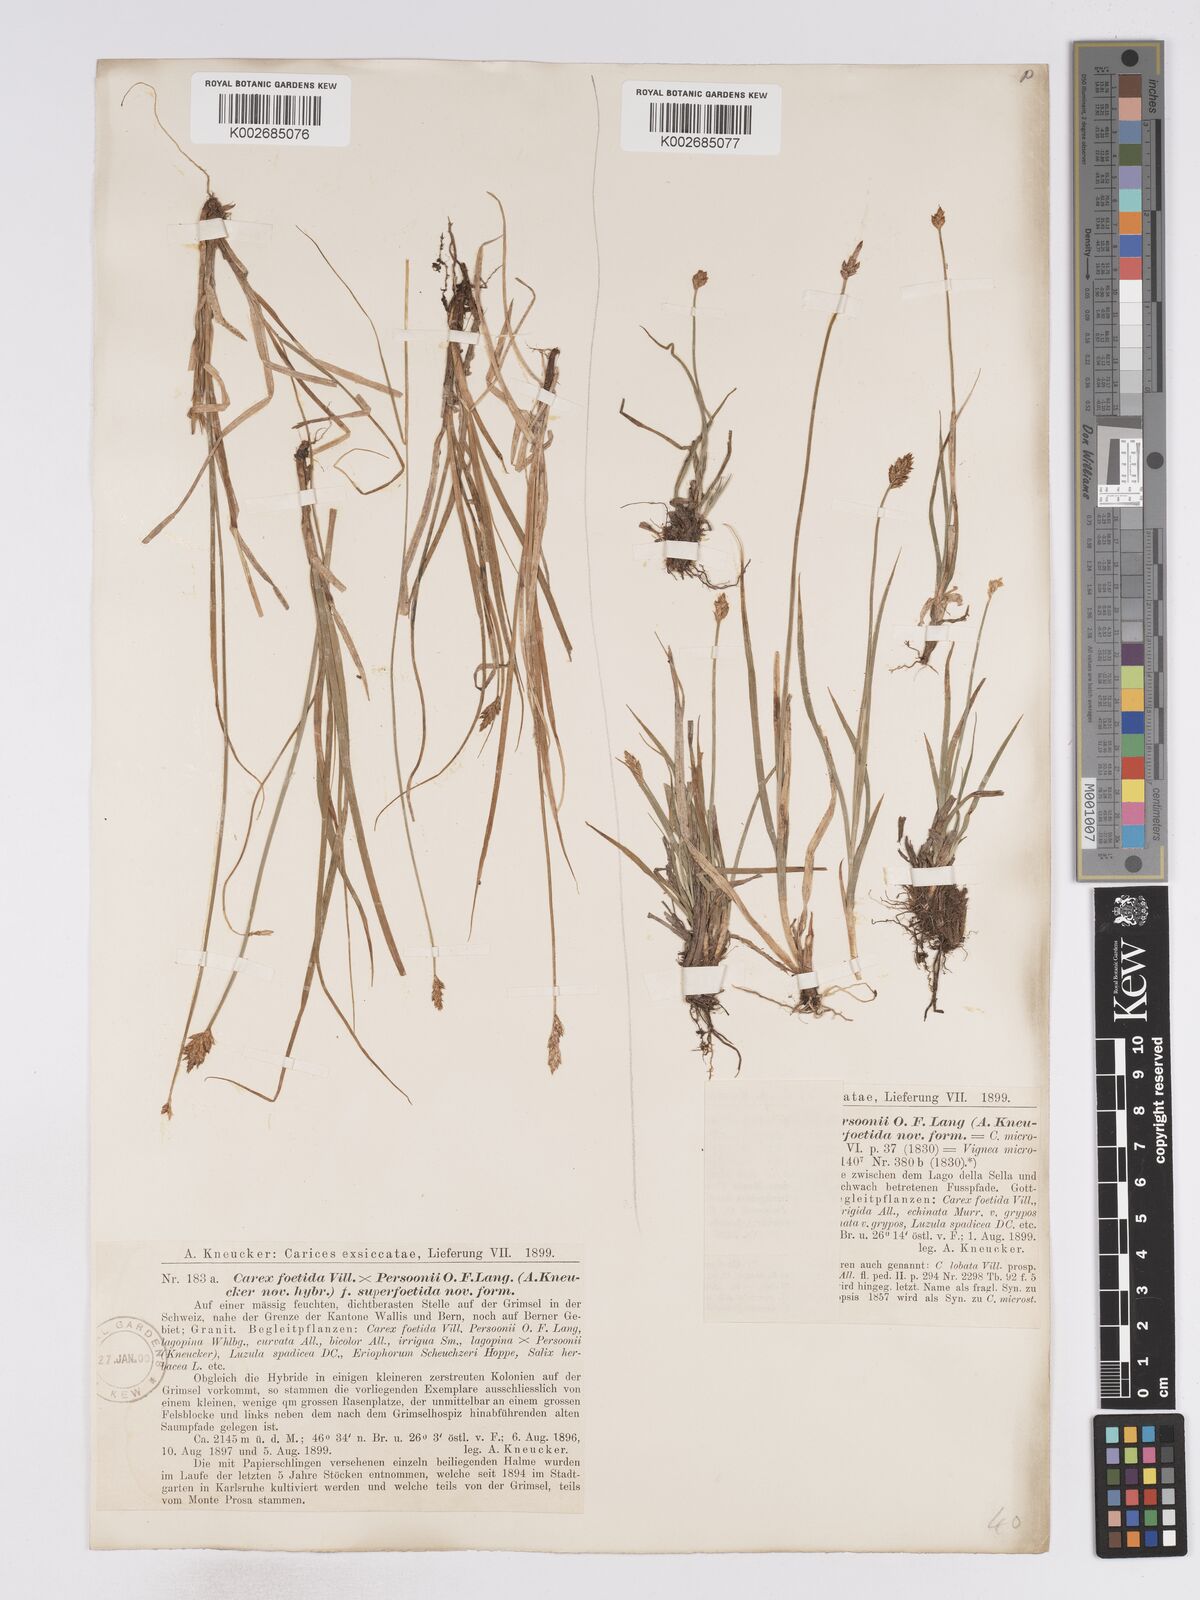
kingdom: Plantae
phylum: Tracheophyta
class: Liliopsida
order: Poales
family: Cyperaceae
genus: Carex
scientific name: Carex microstyla
